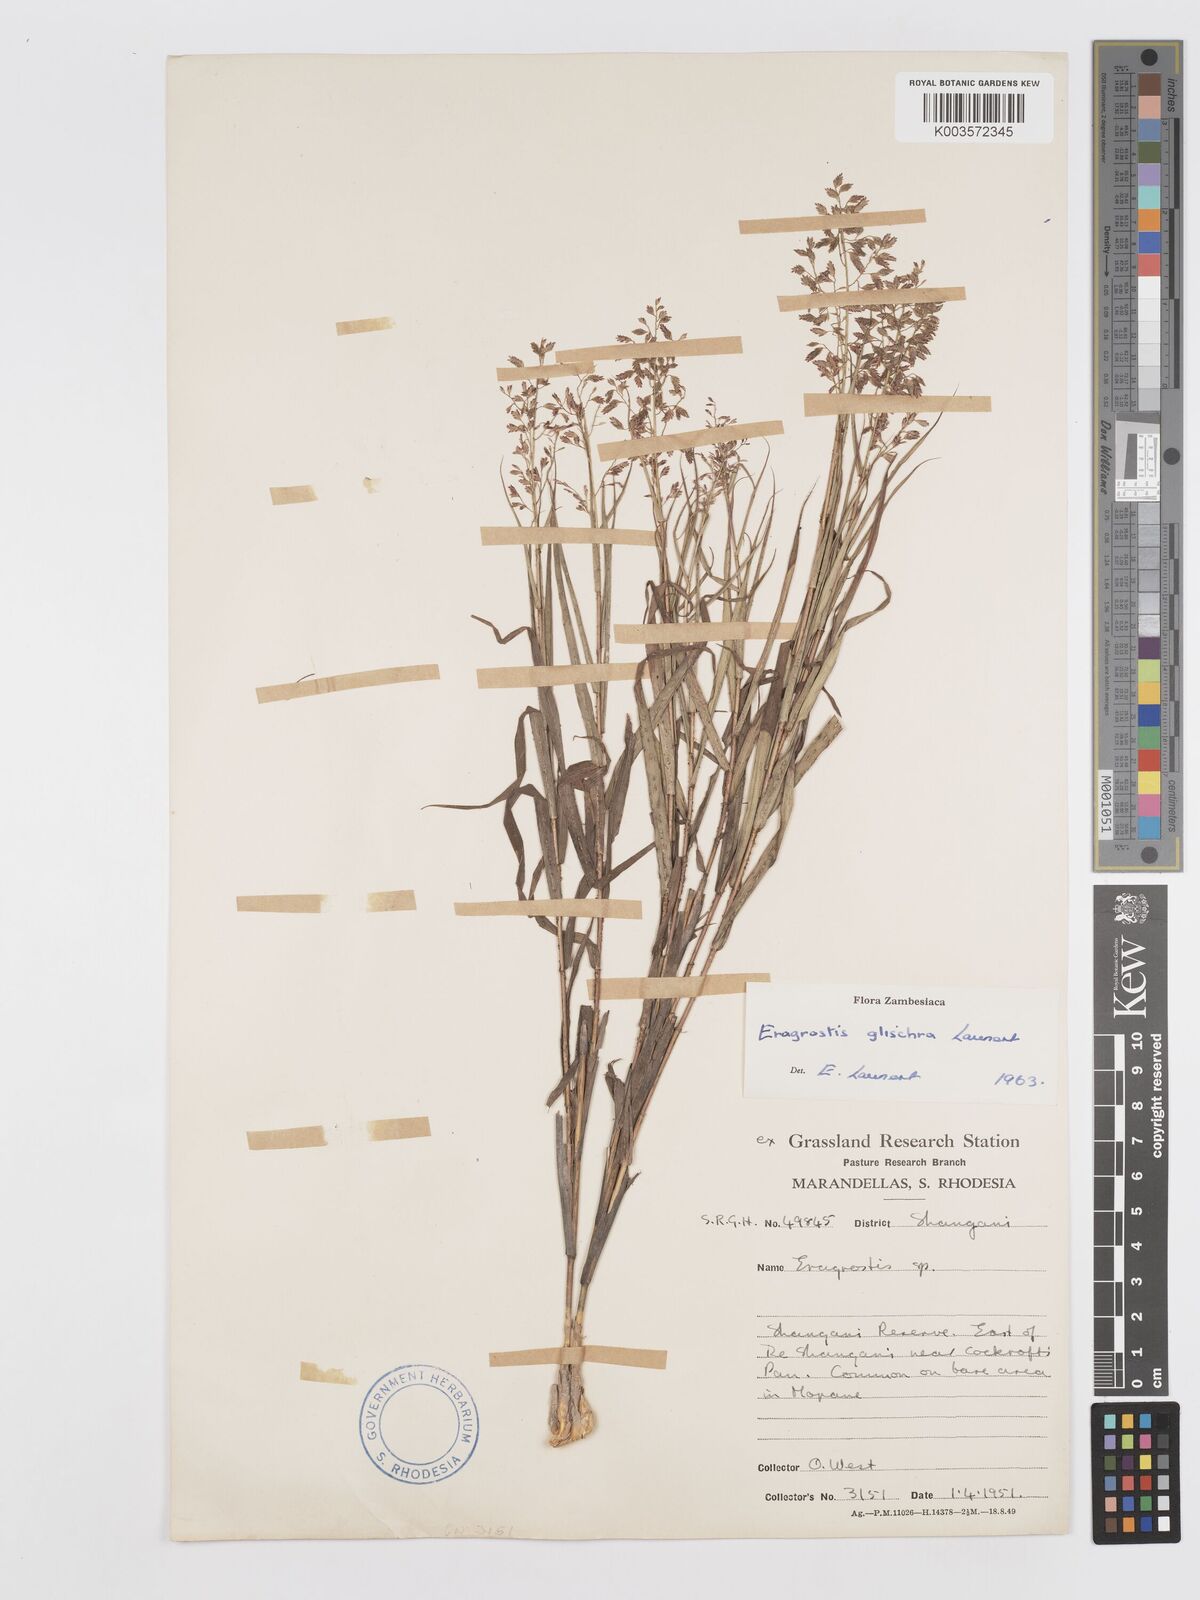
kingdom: Plantae
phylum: Tracheophyta
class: Liliopsida
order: Poales
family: Poaceae
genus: Eragrostis
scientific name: Eragrostis glischra
